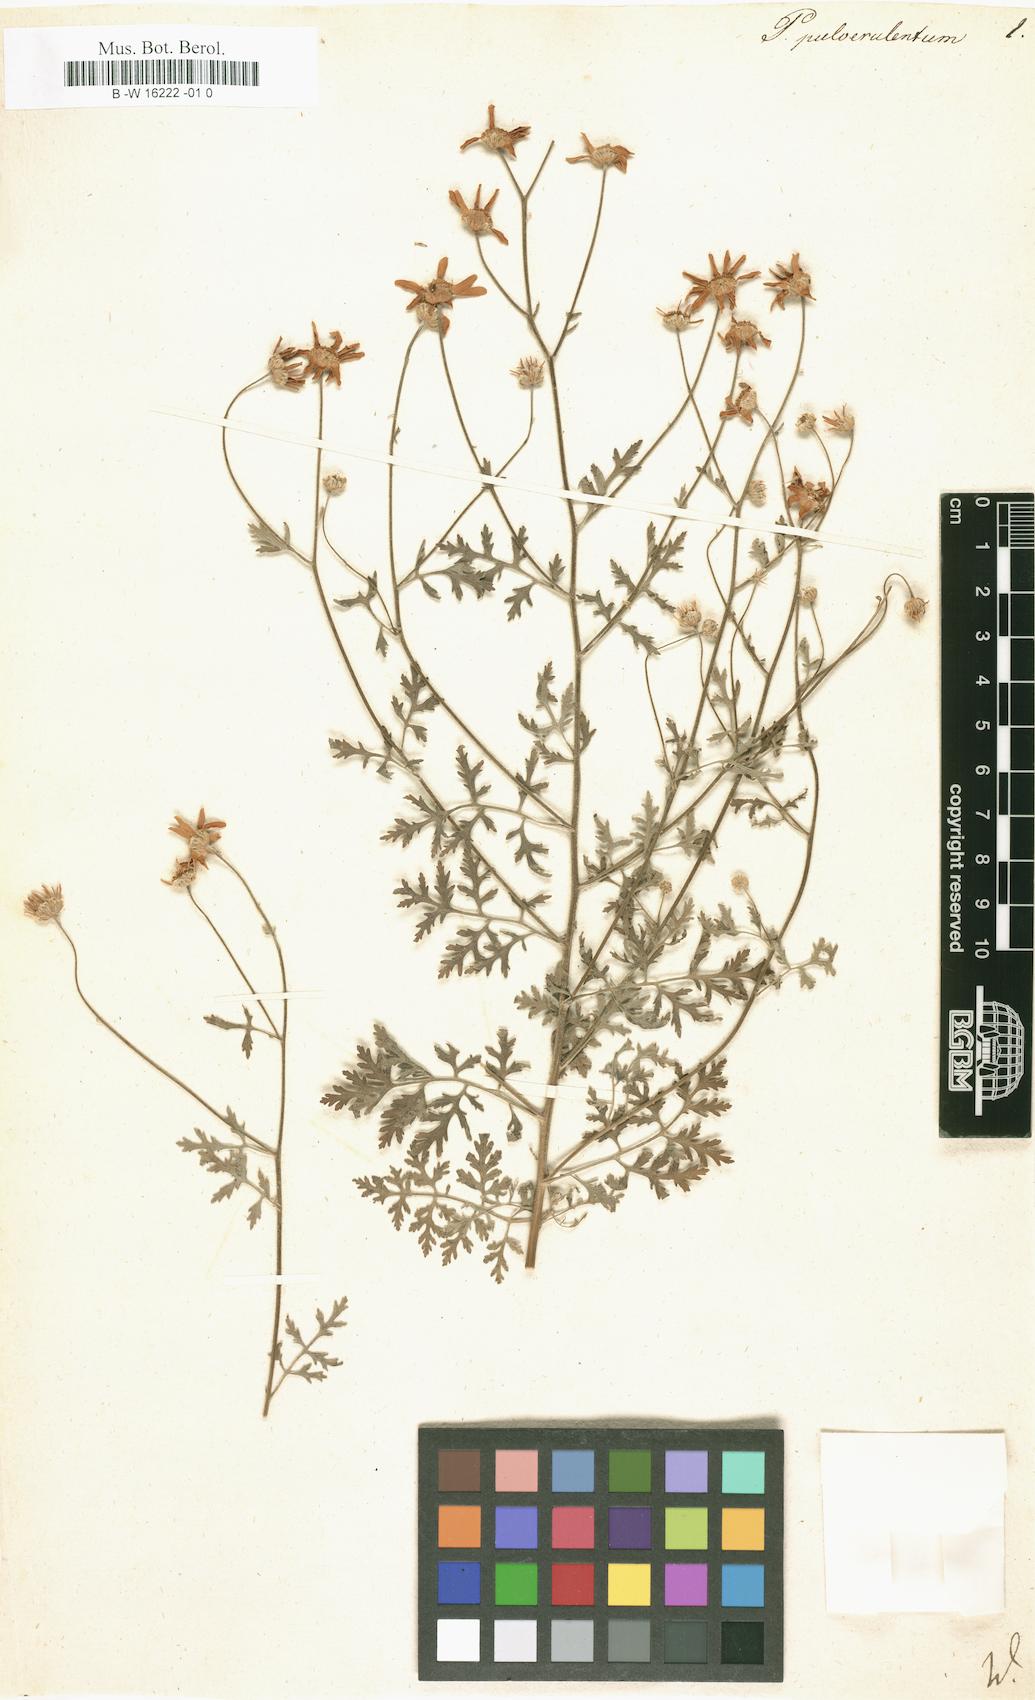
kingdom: Plantae
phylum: Tracheophyta
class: Magnoliopsida
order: Asterales
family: Asteraceae
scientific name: Asteraceae
